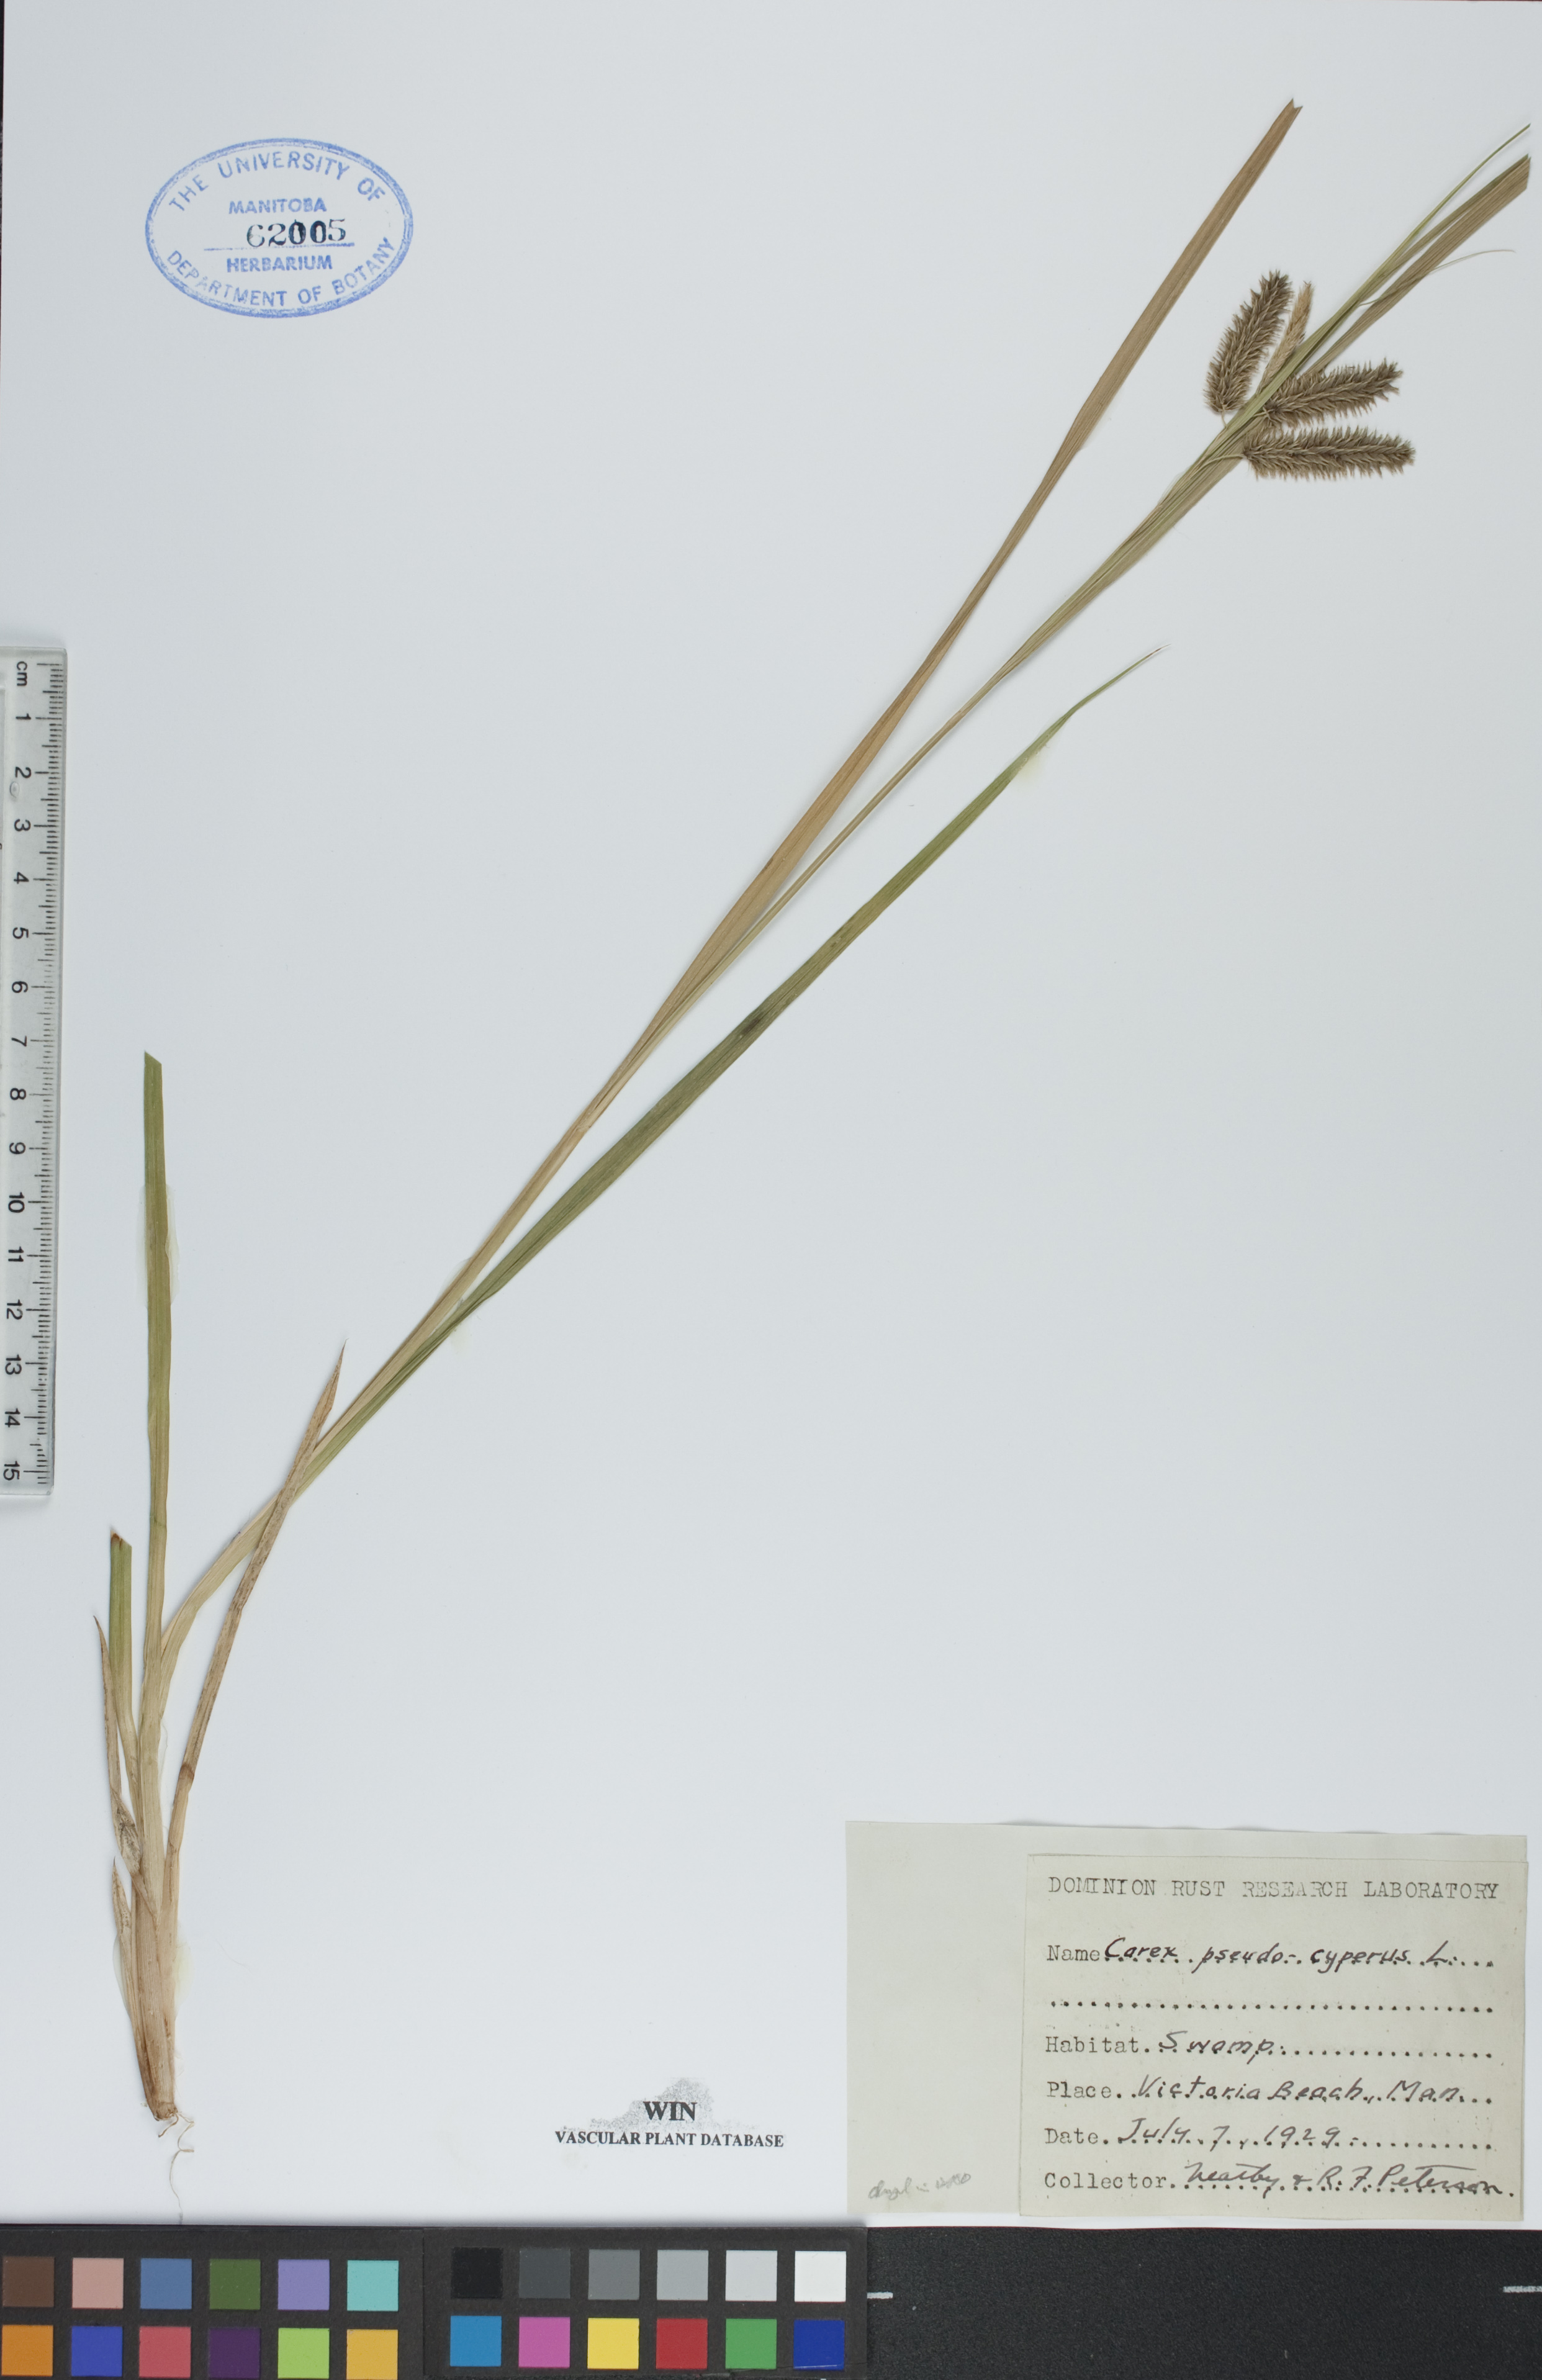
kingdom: Plantae
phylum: Tracheophyta
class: Liliopsida
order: Poales
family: Cyperaceae
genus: Carex
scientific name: Carex pseudocyperus
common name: Cyperus sedge
